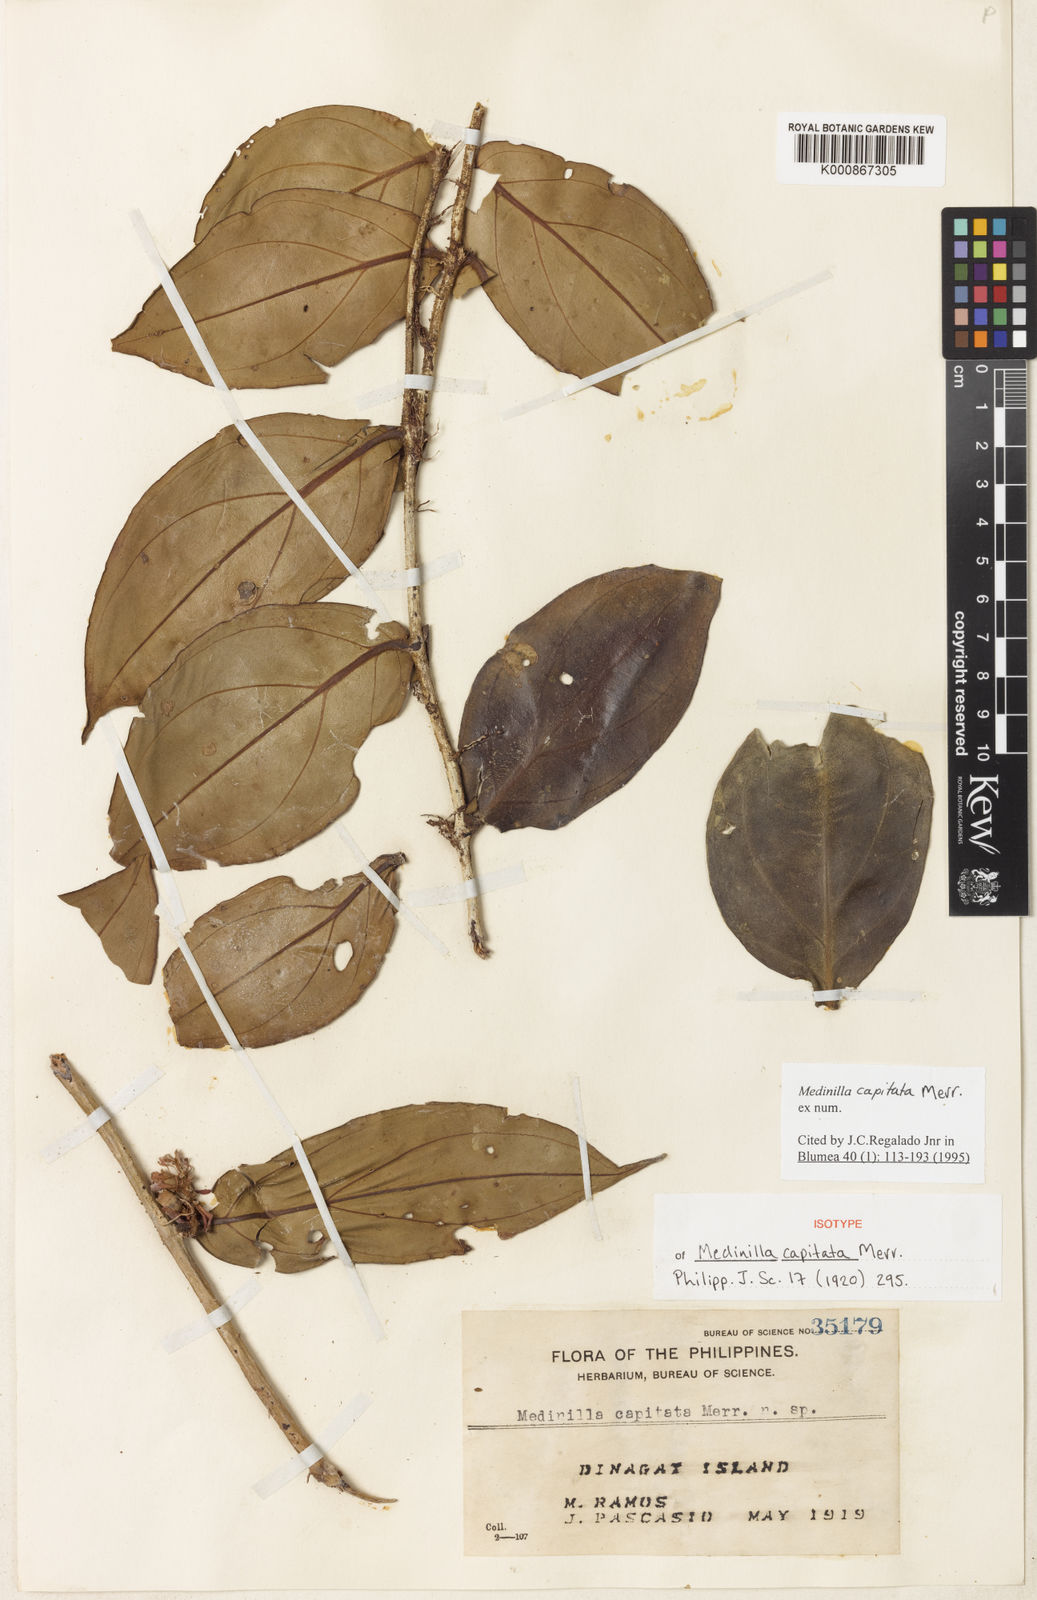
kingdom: Plantae
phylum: Tracheophyta
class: Magnoliopsida
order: Myrtales
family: Melastomataceae
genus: Medinilla
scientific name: Medinilla capitata
